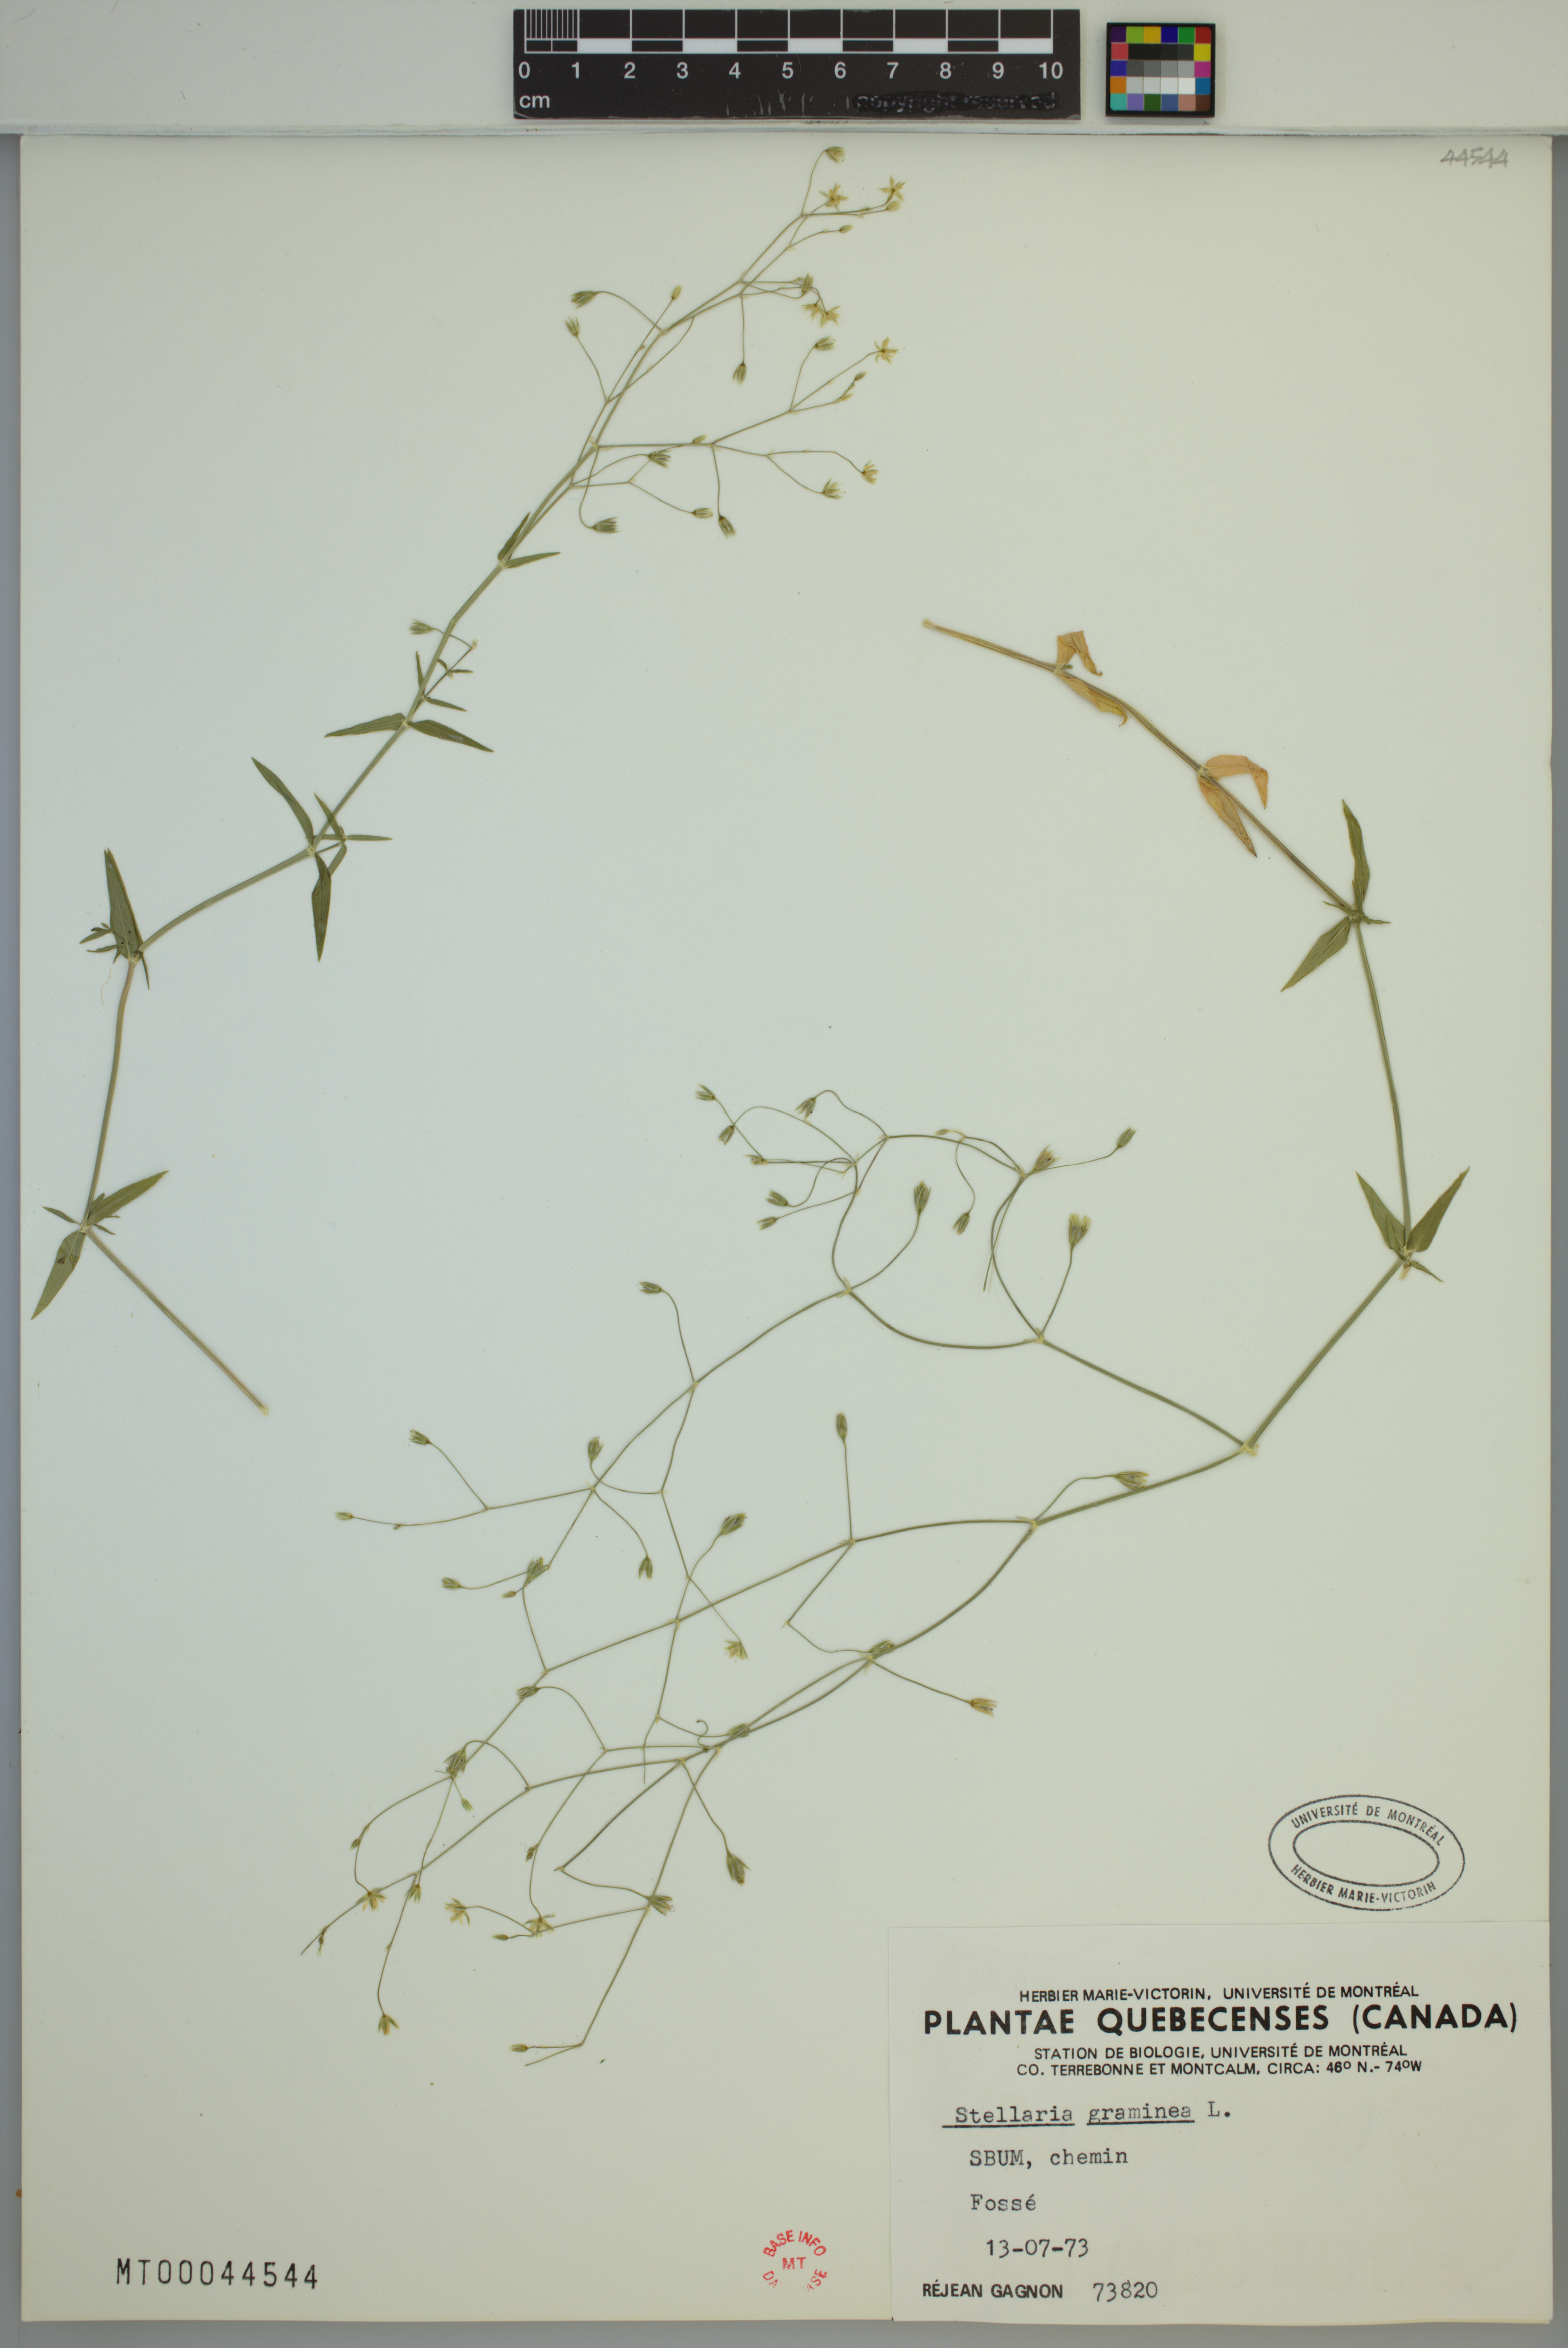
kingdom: Plantae
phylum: Tracheophyta
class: Magnoliopsida
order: Caryophyllales
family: Caryophyllaceae
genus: Stellaria
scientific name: Stellaria graminea
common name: Grass-like starwort
